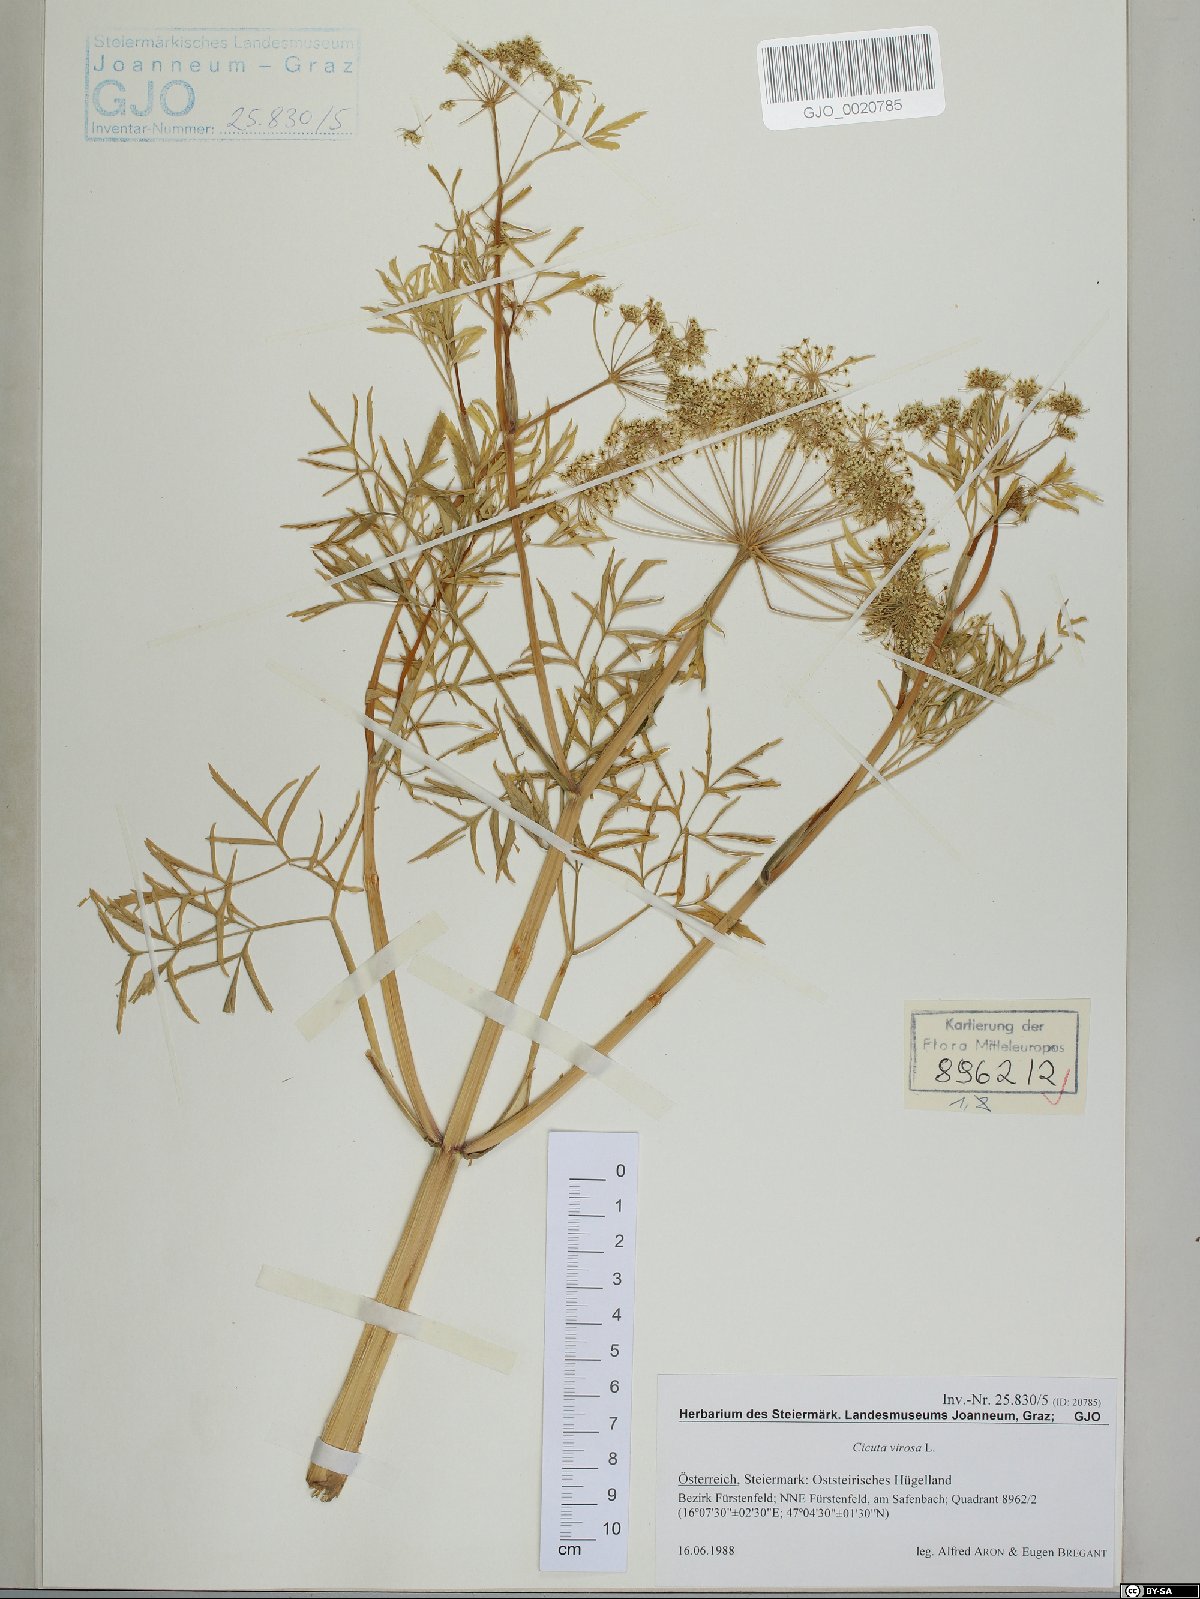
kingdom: Plantae
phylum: Tracheophyta
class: Magnoliopsida
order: Apiales
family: Apiaceae
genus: Cicuta
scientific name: Cicuta virosa
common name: Cowbane
